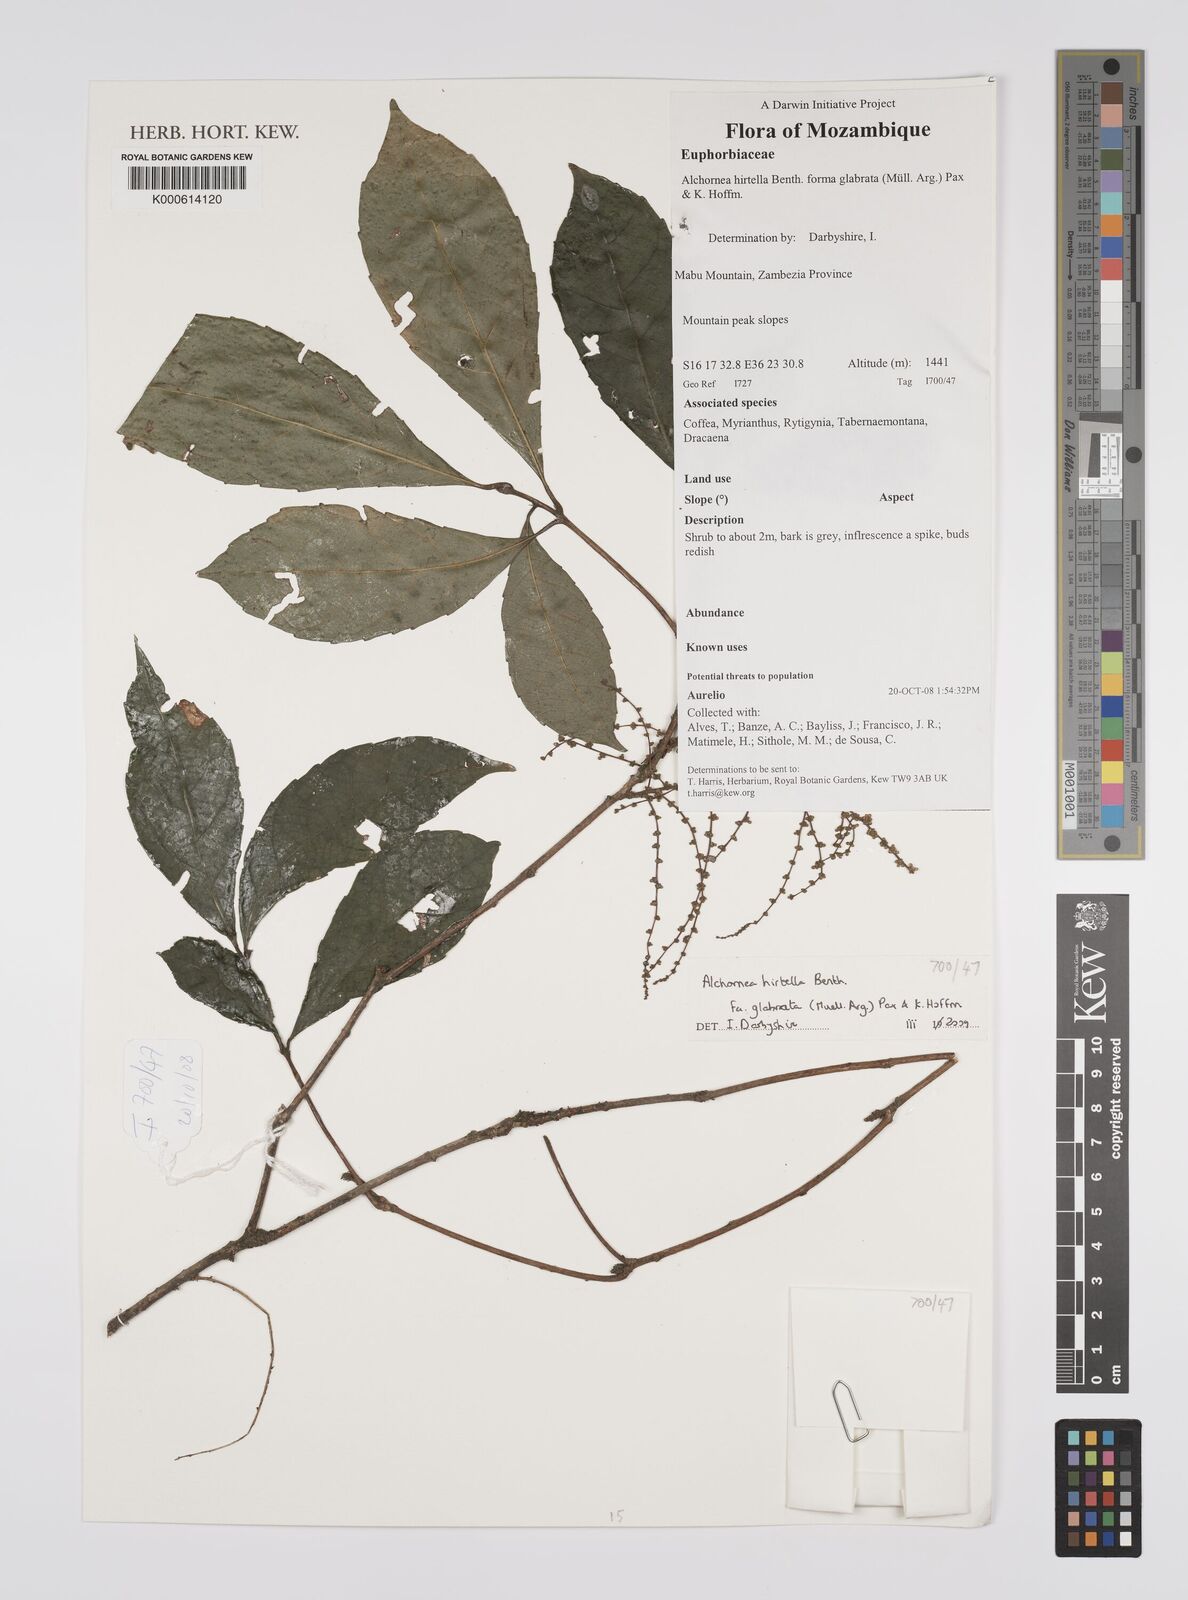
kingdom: Plantae
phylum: Tracheophyta
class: Magnoliopsida
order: Malpighiales
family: Euphorbiaceae
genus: Alchornea
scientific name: Alchornea hirtella
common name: Forest bead-string
